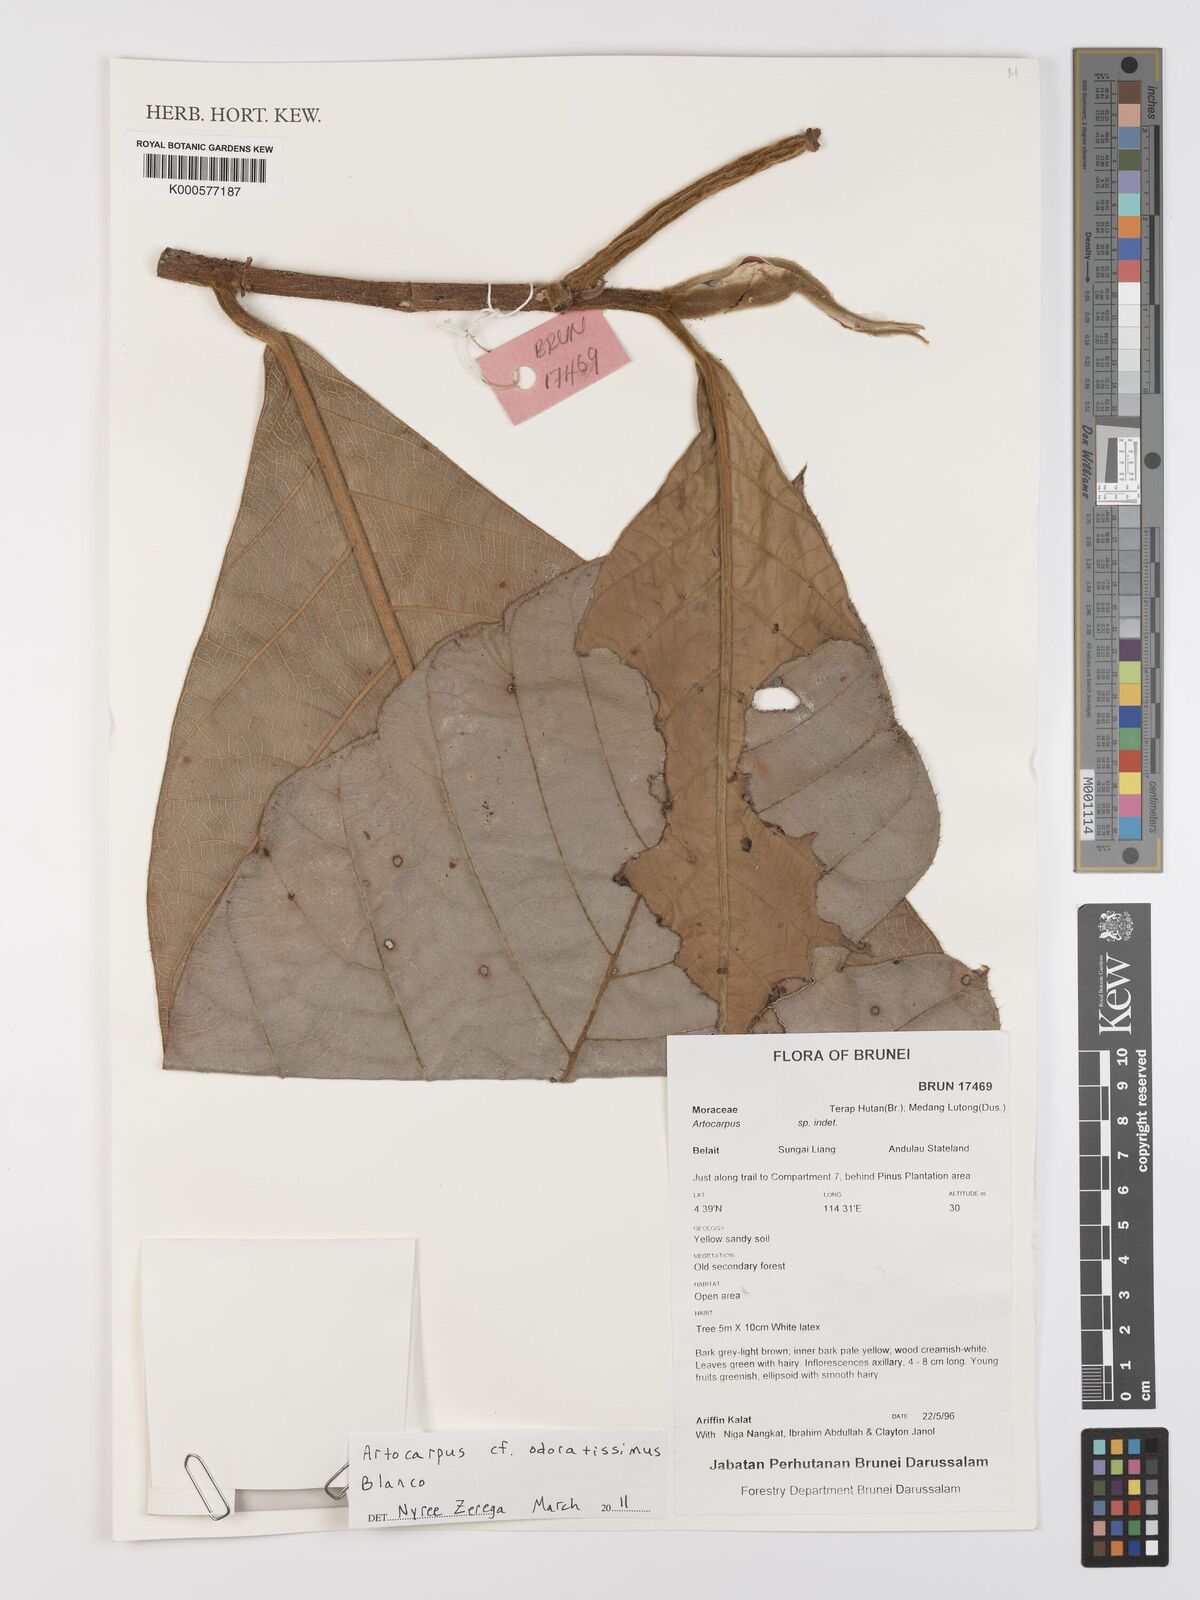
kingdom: Plantae
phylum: Tracheophyta
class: Magnoliopsida
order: Rosales
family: Moraceae
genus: Artocarpus
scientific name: Artocarpus odoratissimus
